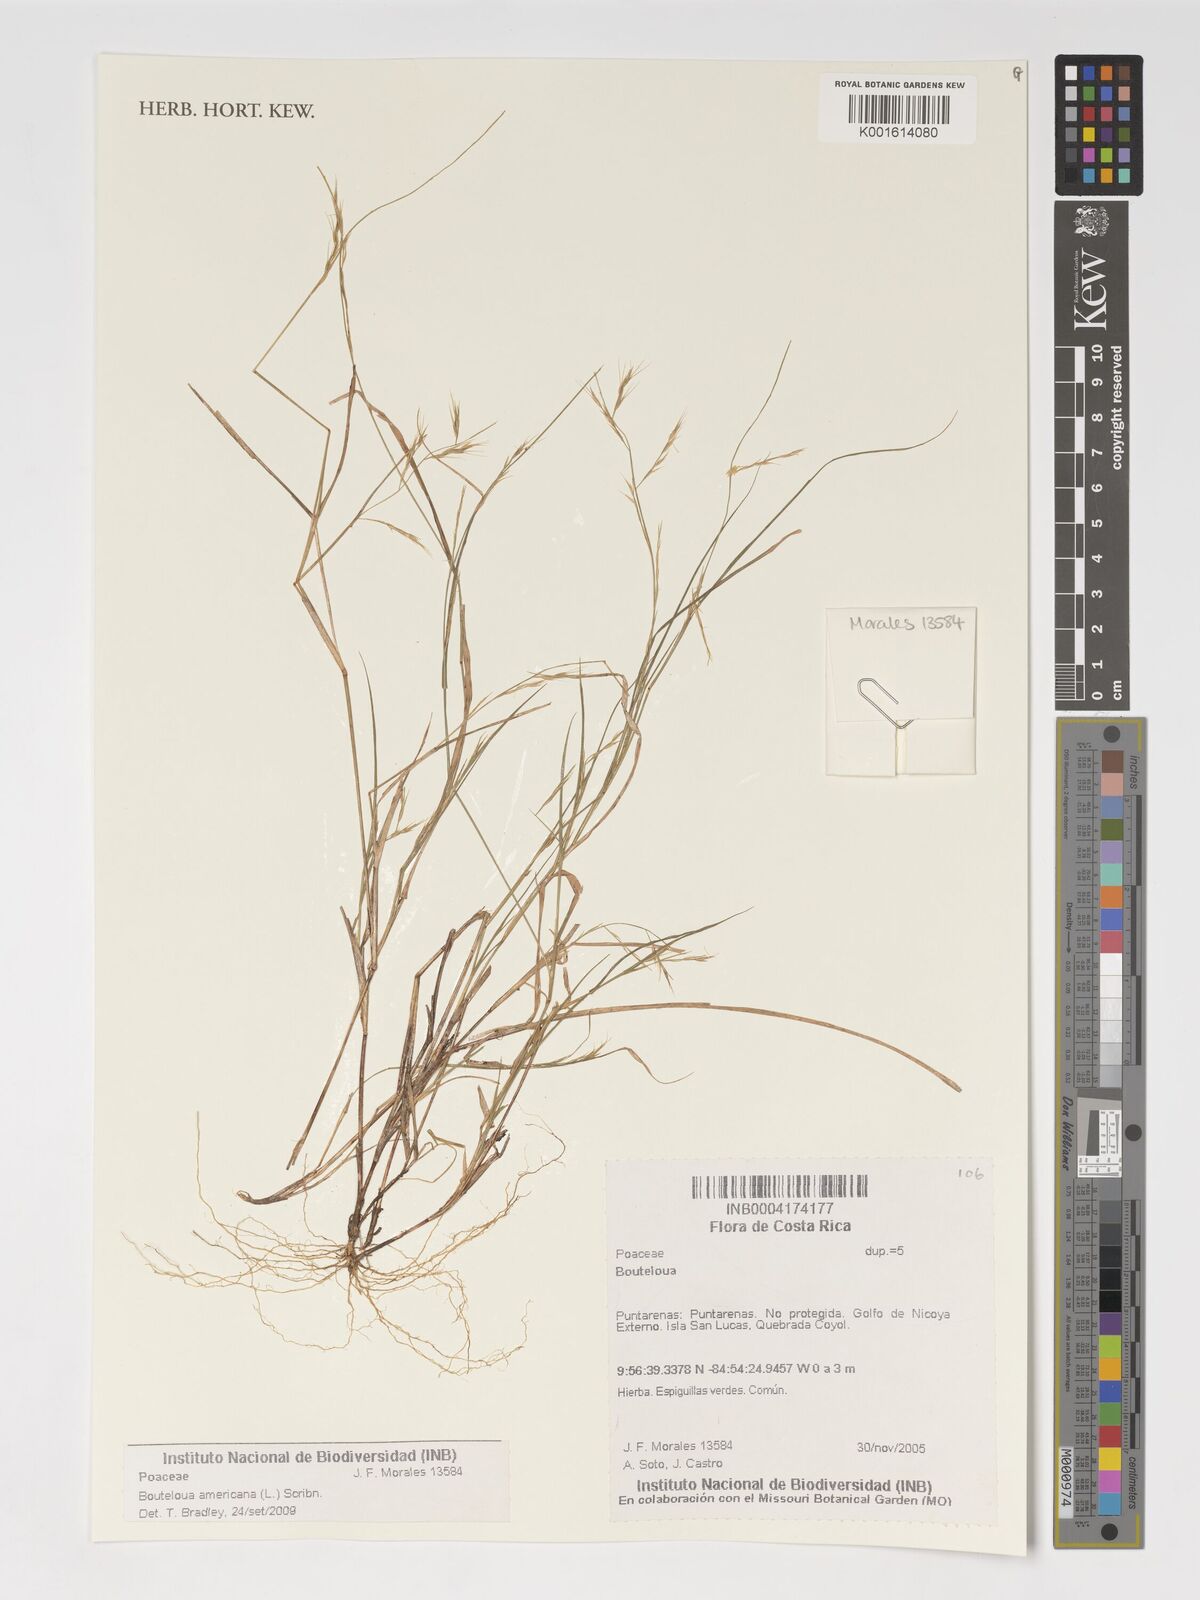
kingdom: Plantae
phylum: Tracheophyta
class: Liliopsida
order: Poales
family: Poaceae
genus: Bouteloua
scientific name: Bouteloua
